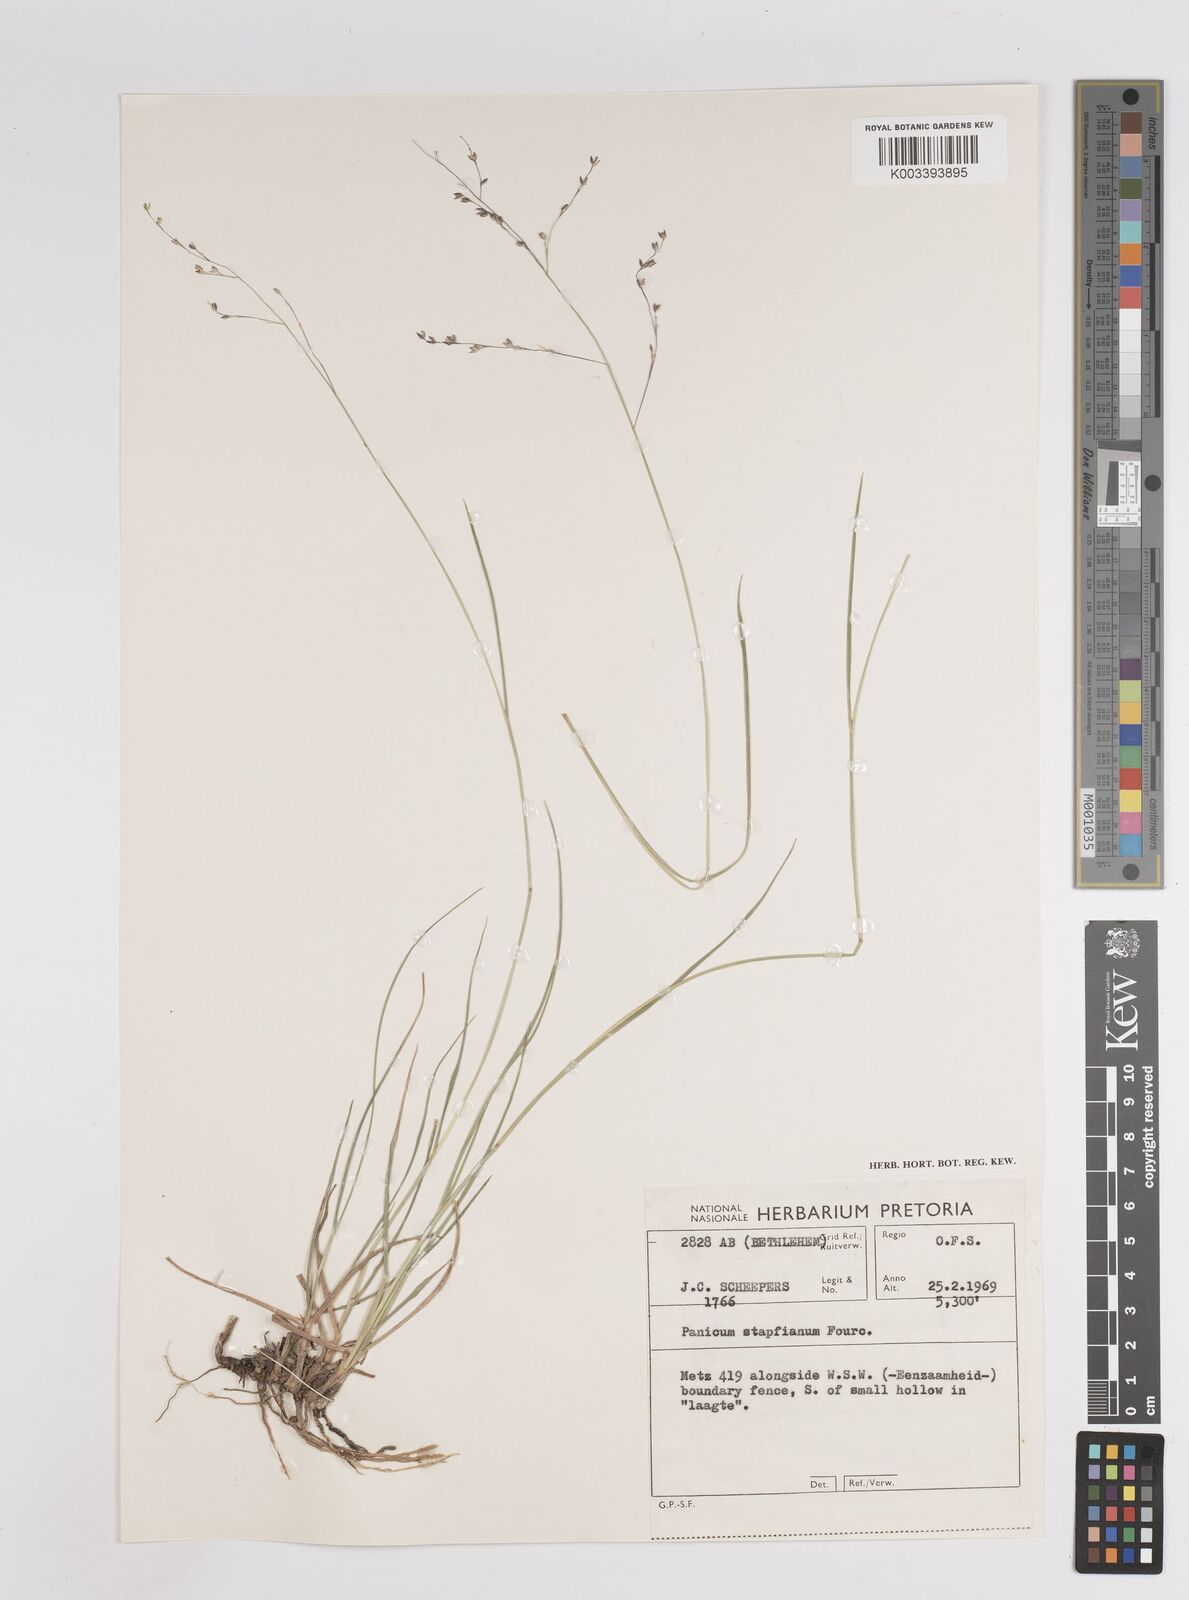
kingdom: Plantae
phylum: Tracheophyta
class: Liliopsida
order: Poales
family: Poaceae
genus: Panicum
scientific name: Panicum stapfianum
